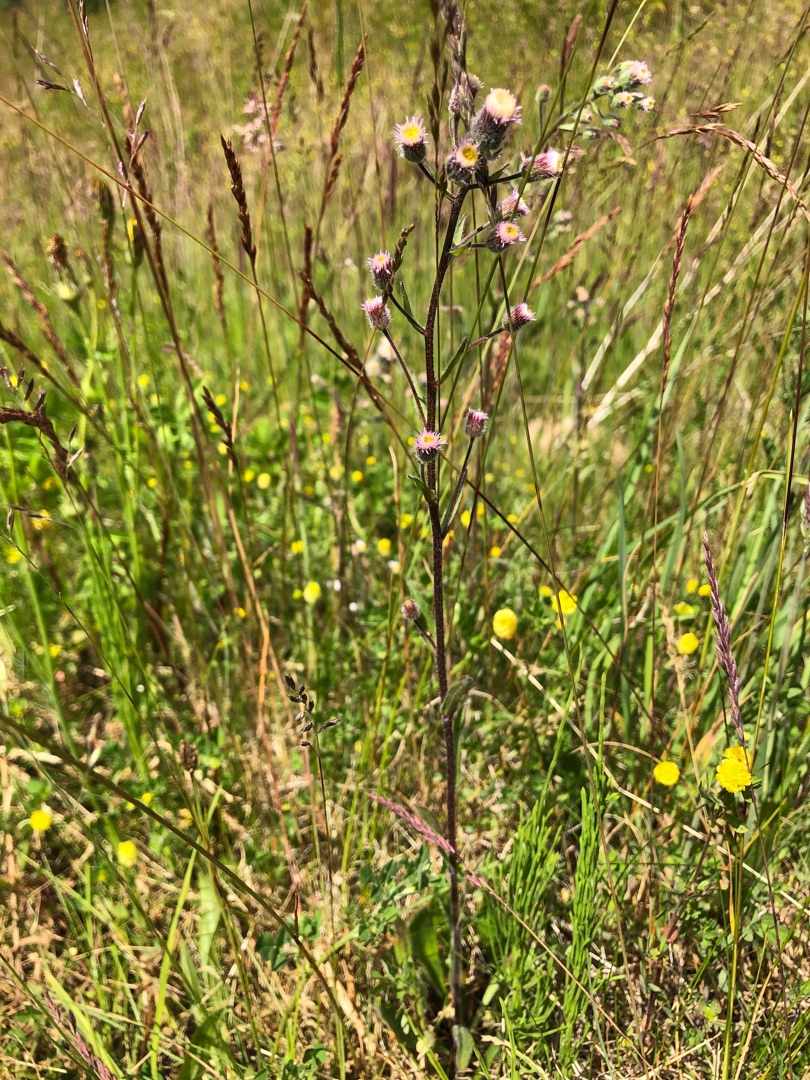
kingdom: Plantae
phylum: Tracheophyta
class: Magnoliopsida
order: Asterales
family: Asteraceae
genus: Erigeron
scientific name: Erigeron acris
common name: Bitter bakkestjerne
